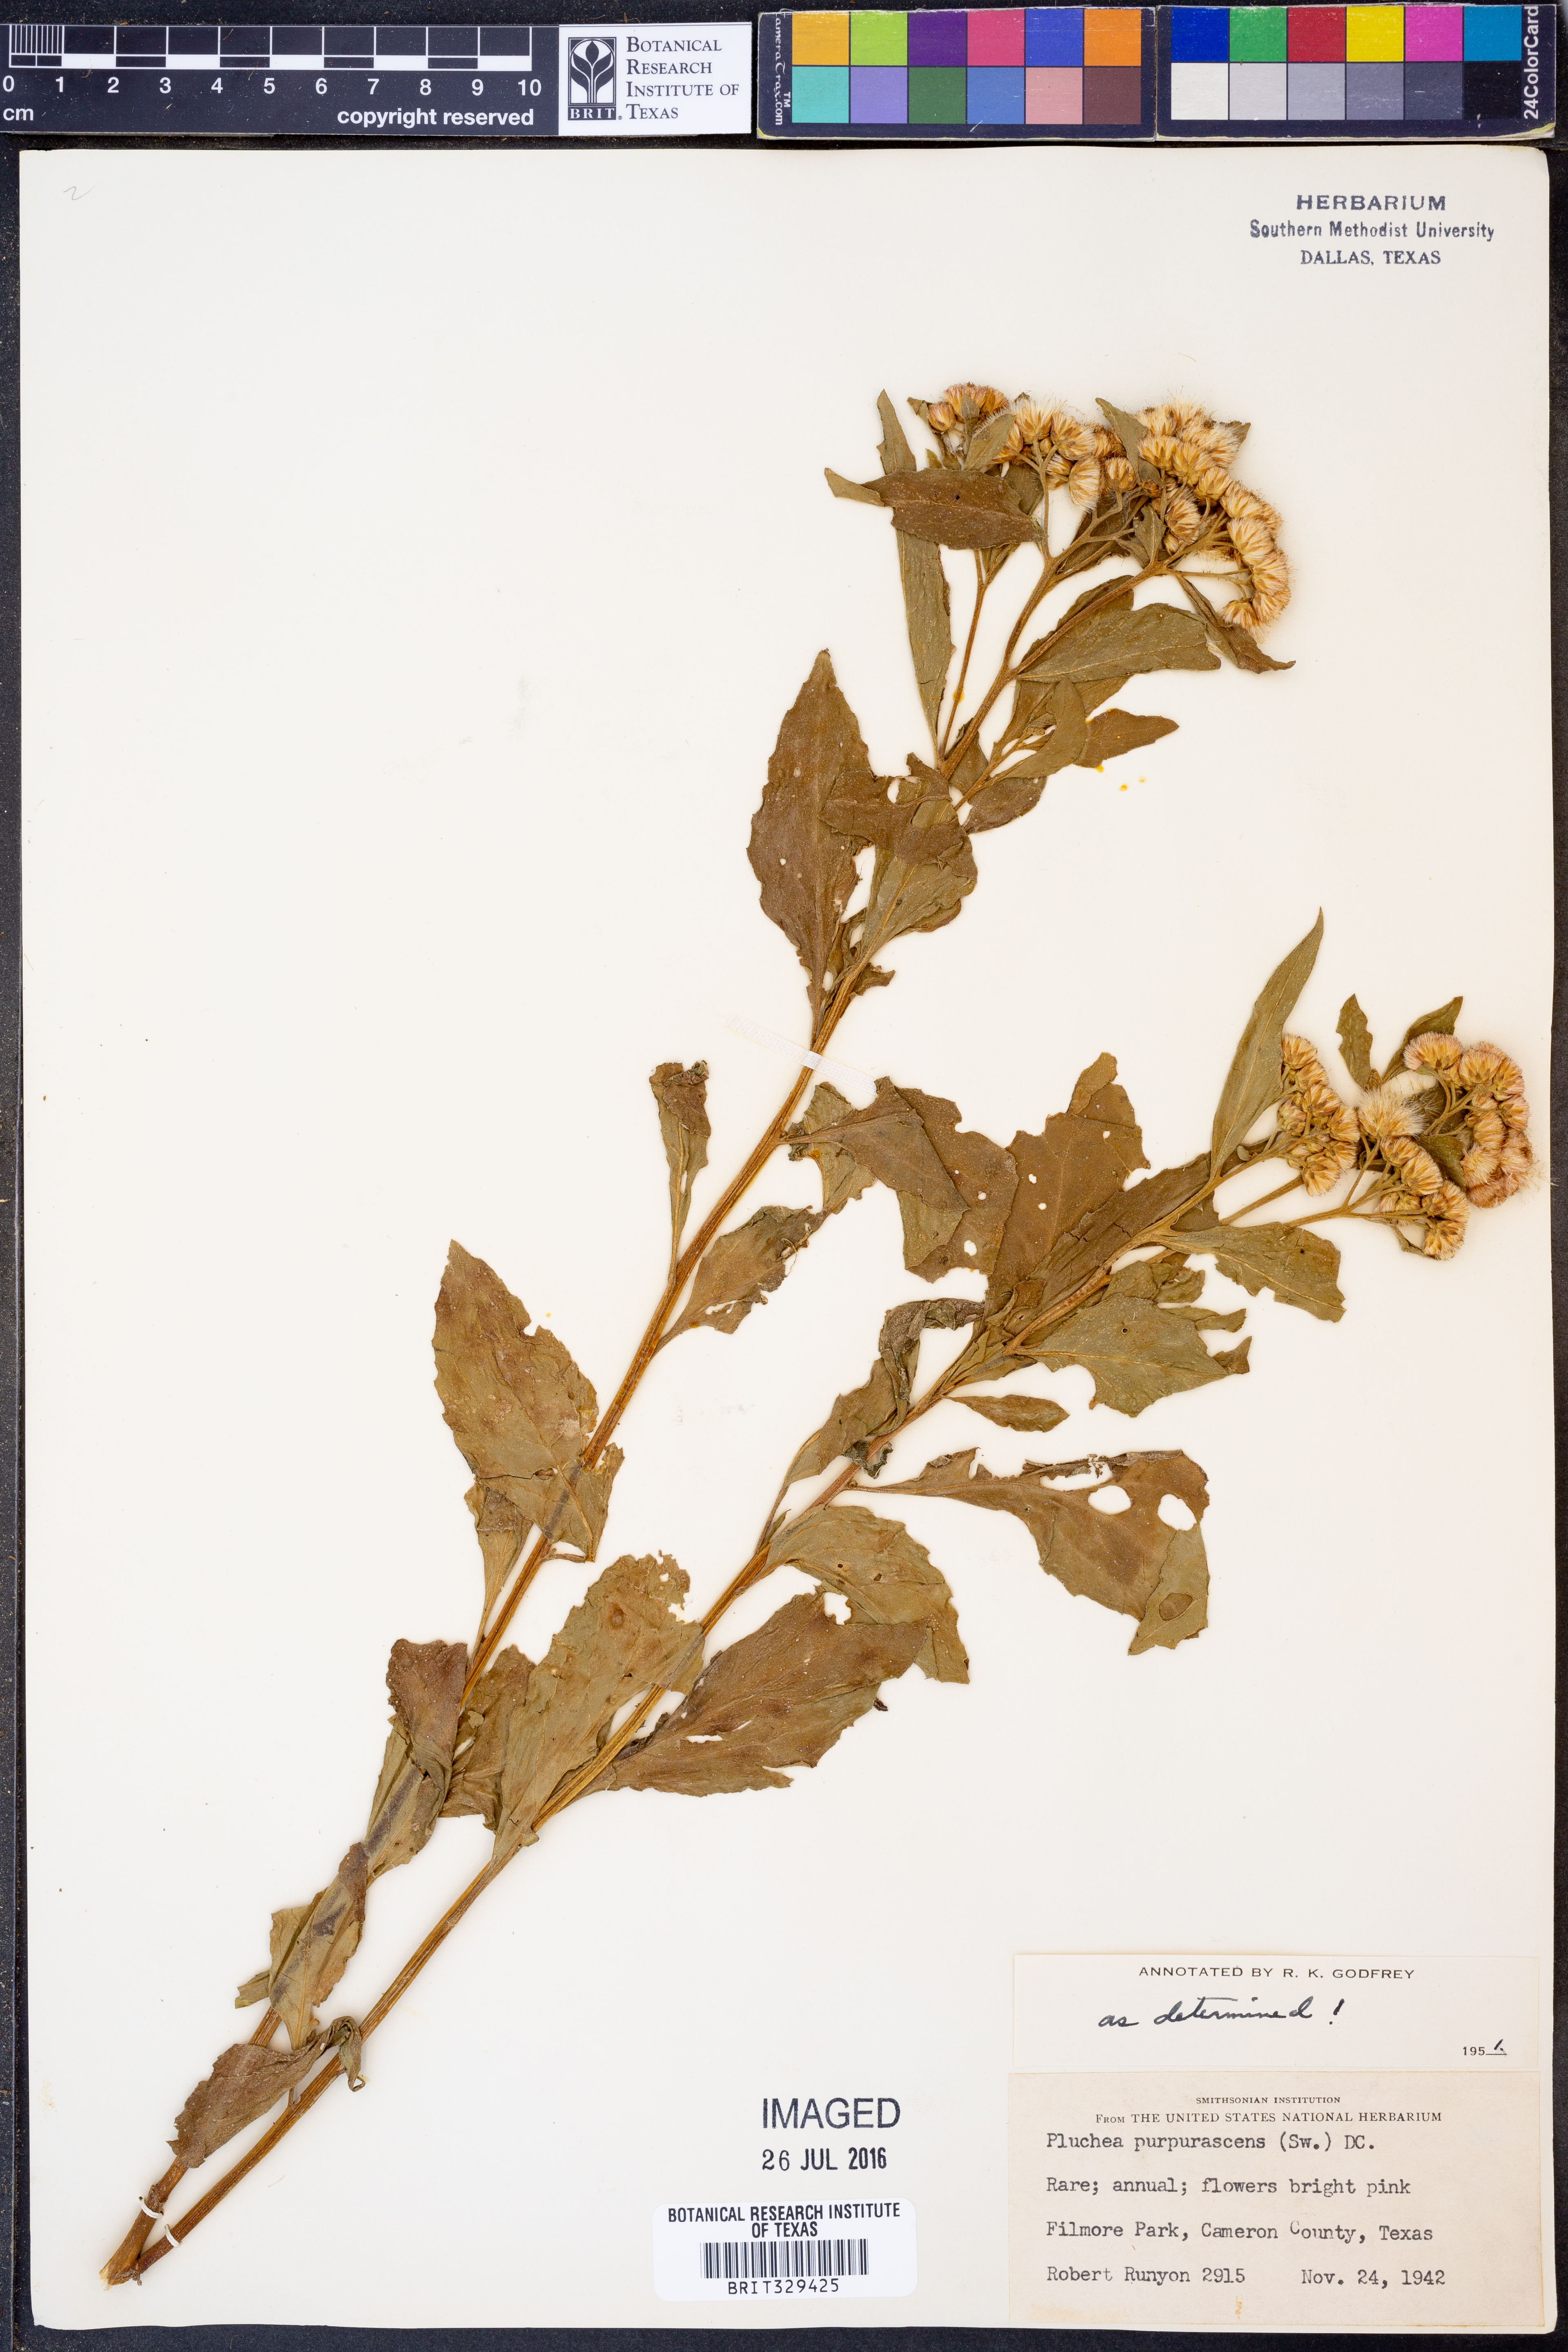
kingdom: Plantae
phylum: Tracheophyta
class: Magnoliopsida
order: Asterales
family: Asteraceae
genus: Pluchea
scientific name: Pluchea odorata
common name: Saltmarsh fleabane
